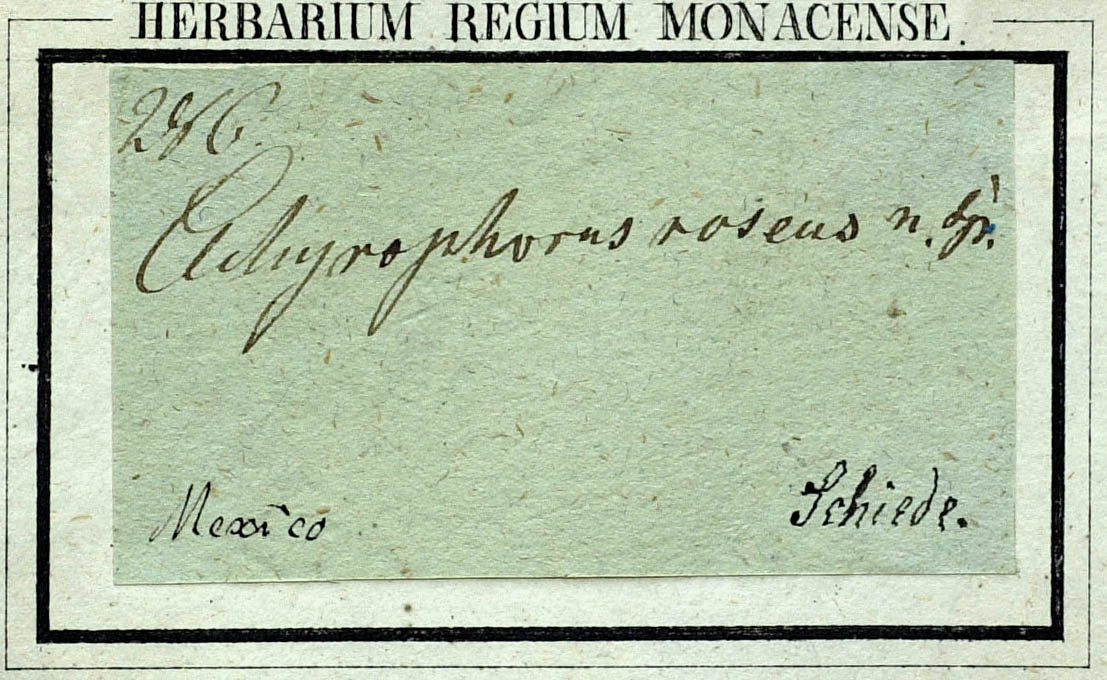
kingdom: Plantae
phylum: Tracheophyta
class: Magnoliopsida
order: Asterales
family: Asteraceae
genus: Pinaropappus
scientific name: Pinaropappus roseus
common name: Rock-lettuce
